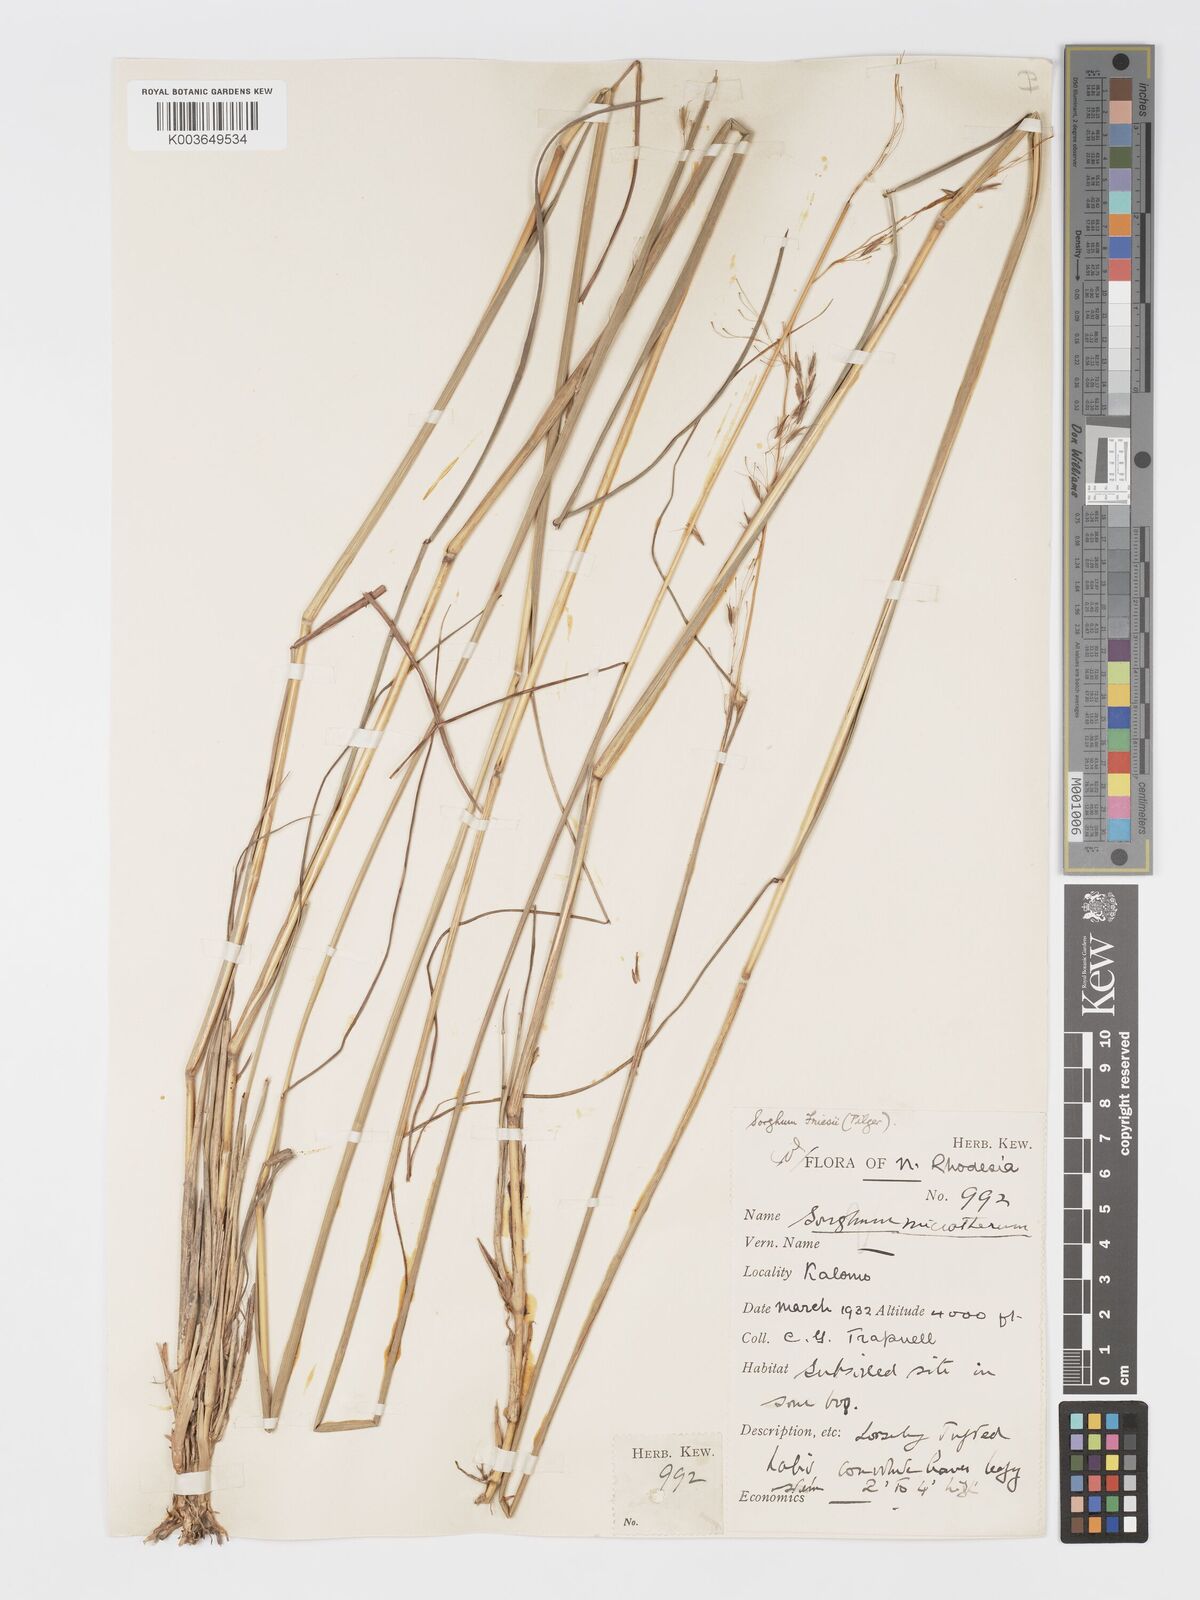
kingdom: Plantae
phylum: Tracheophyta
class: Liliopsida
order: Poales
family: Poaceae
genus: Sorghastrum
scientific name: Sorghastrum nudipes
